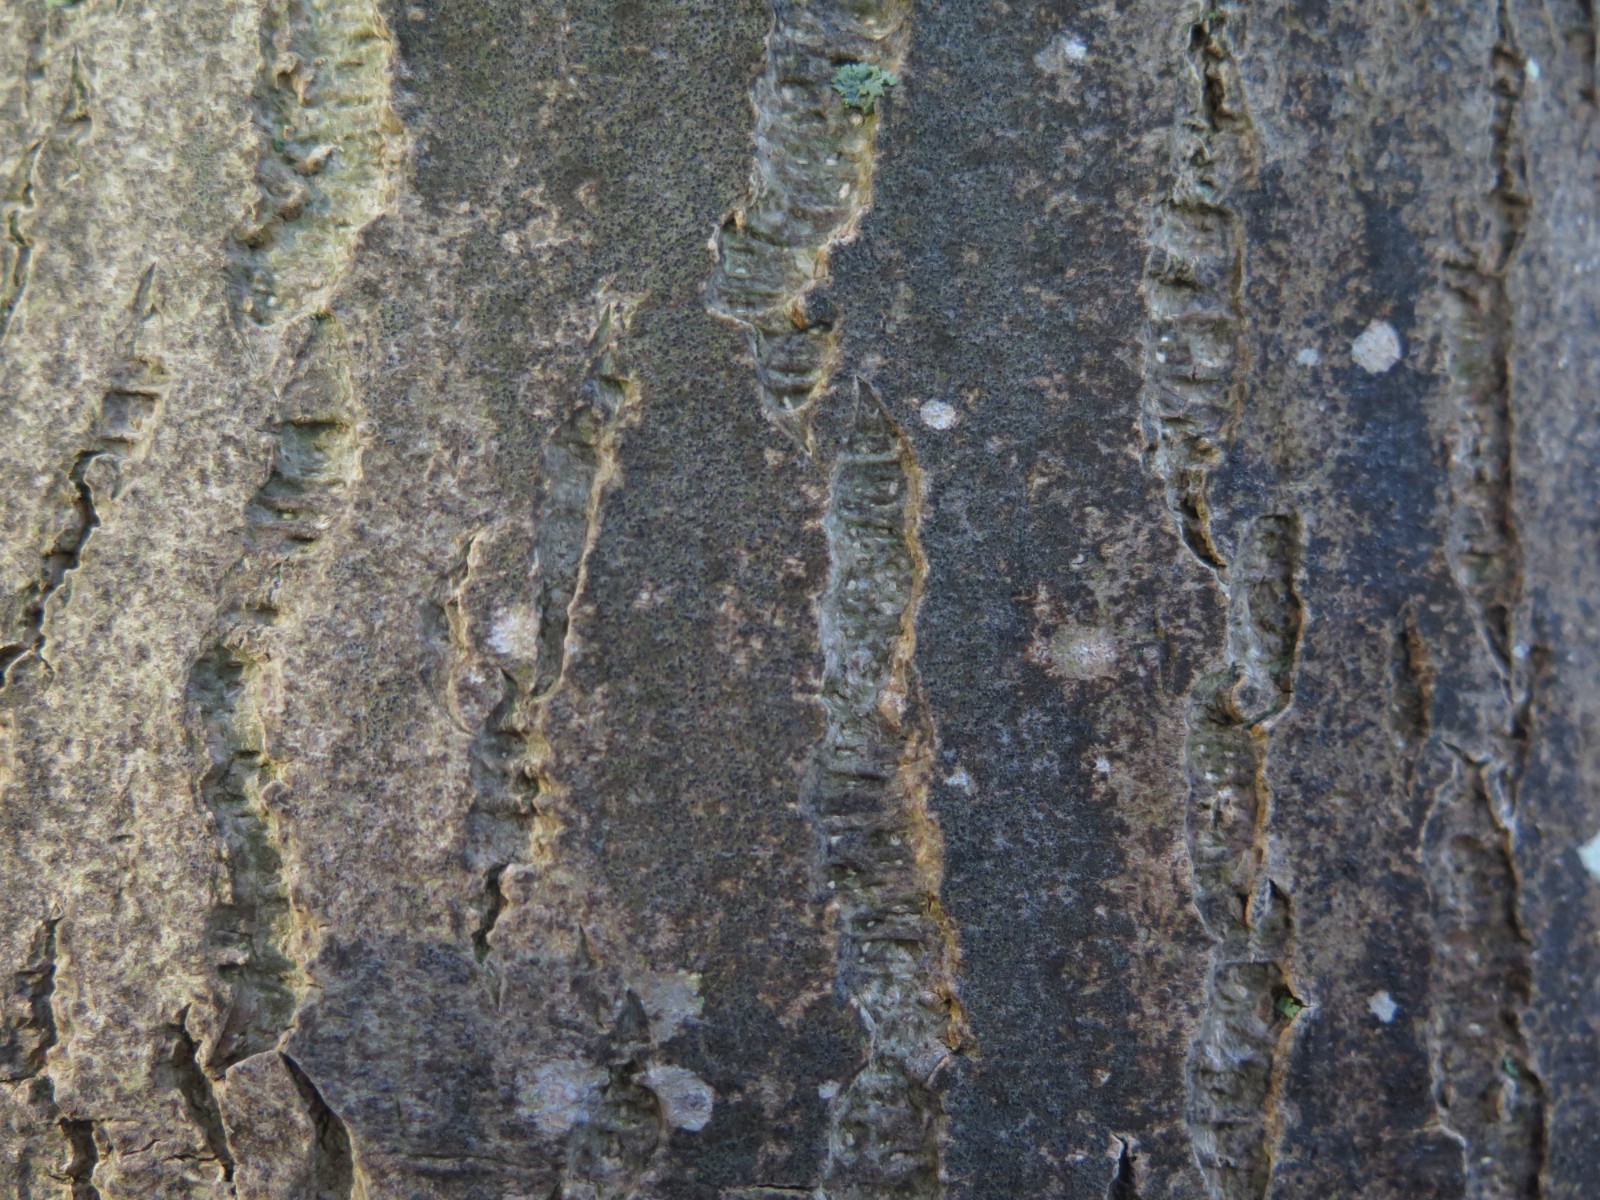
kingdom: Fungi
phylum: Ascomycota
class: Arthoniomycetes
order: Arthoniales
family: Roccellaceae
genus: Pseudoschismatomma
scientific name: Pseudoschismatomma rufescens
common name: brun bogstavlav
